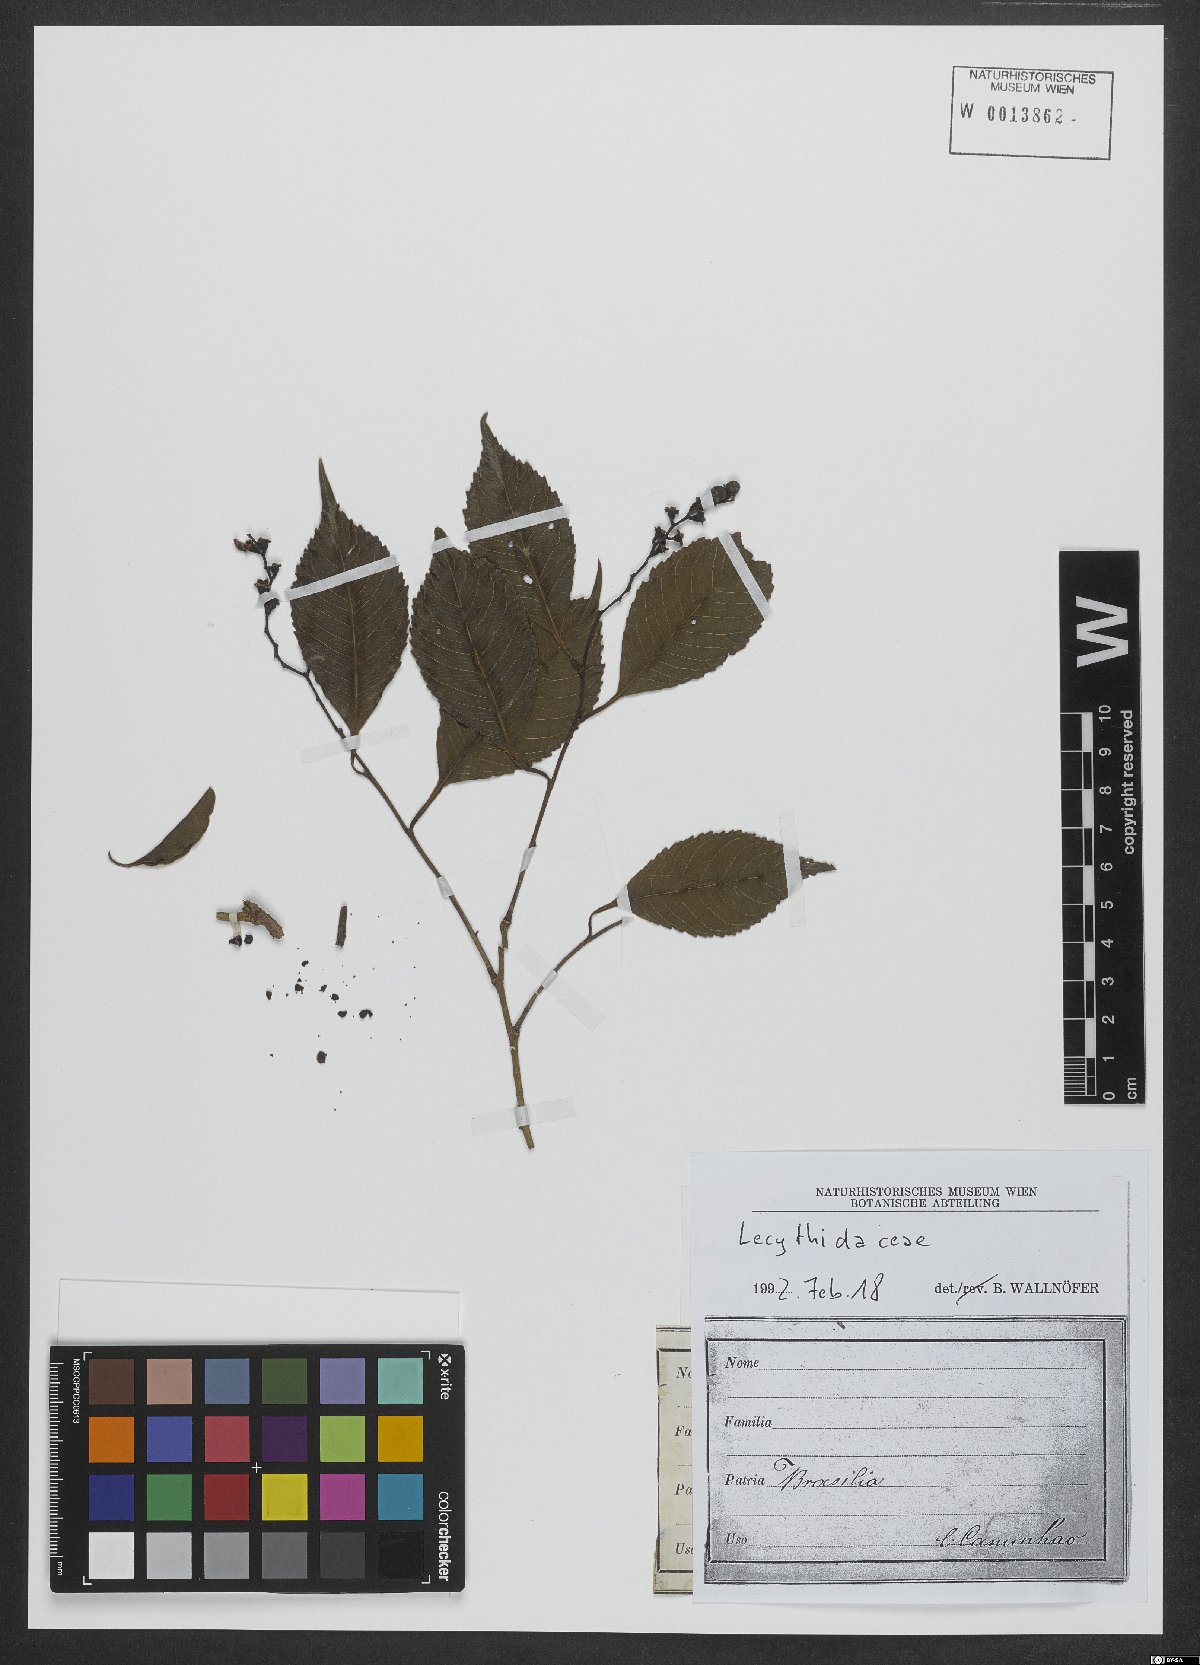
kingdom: Plantae
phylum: Tracheophyta
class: Magnoliopsida
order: Ericales
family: Lecythidaceae
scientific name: Lecythidaceae
